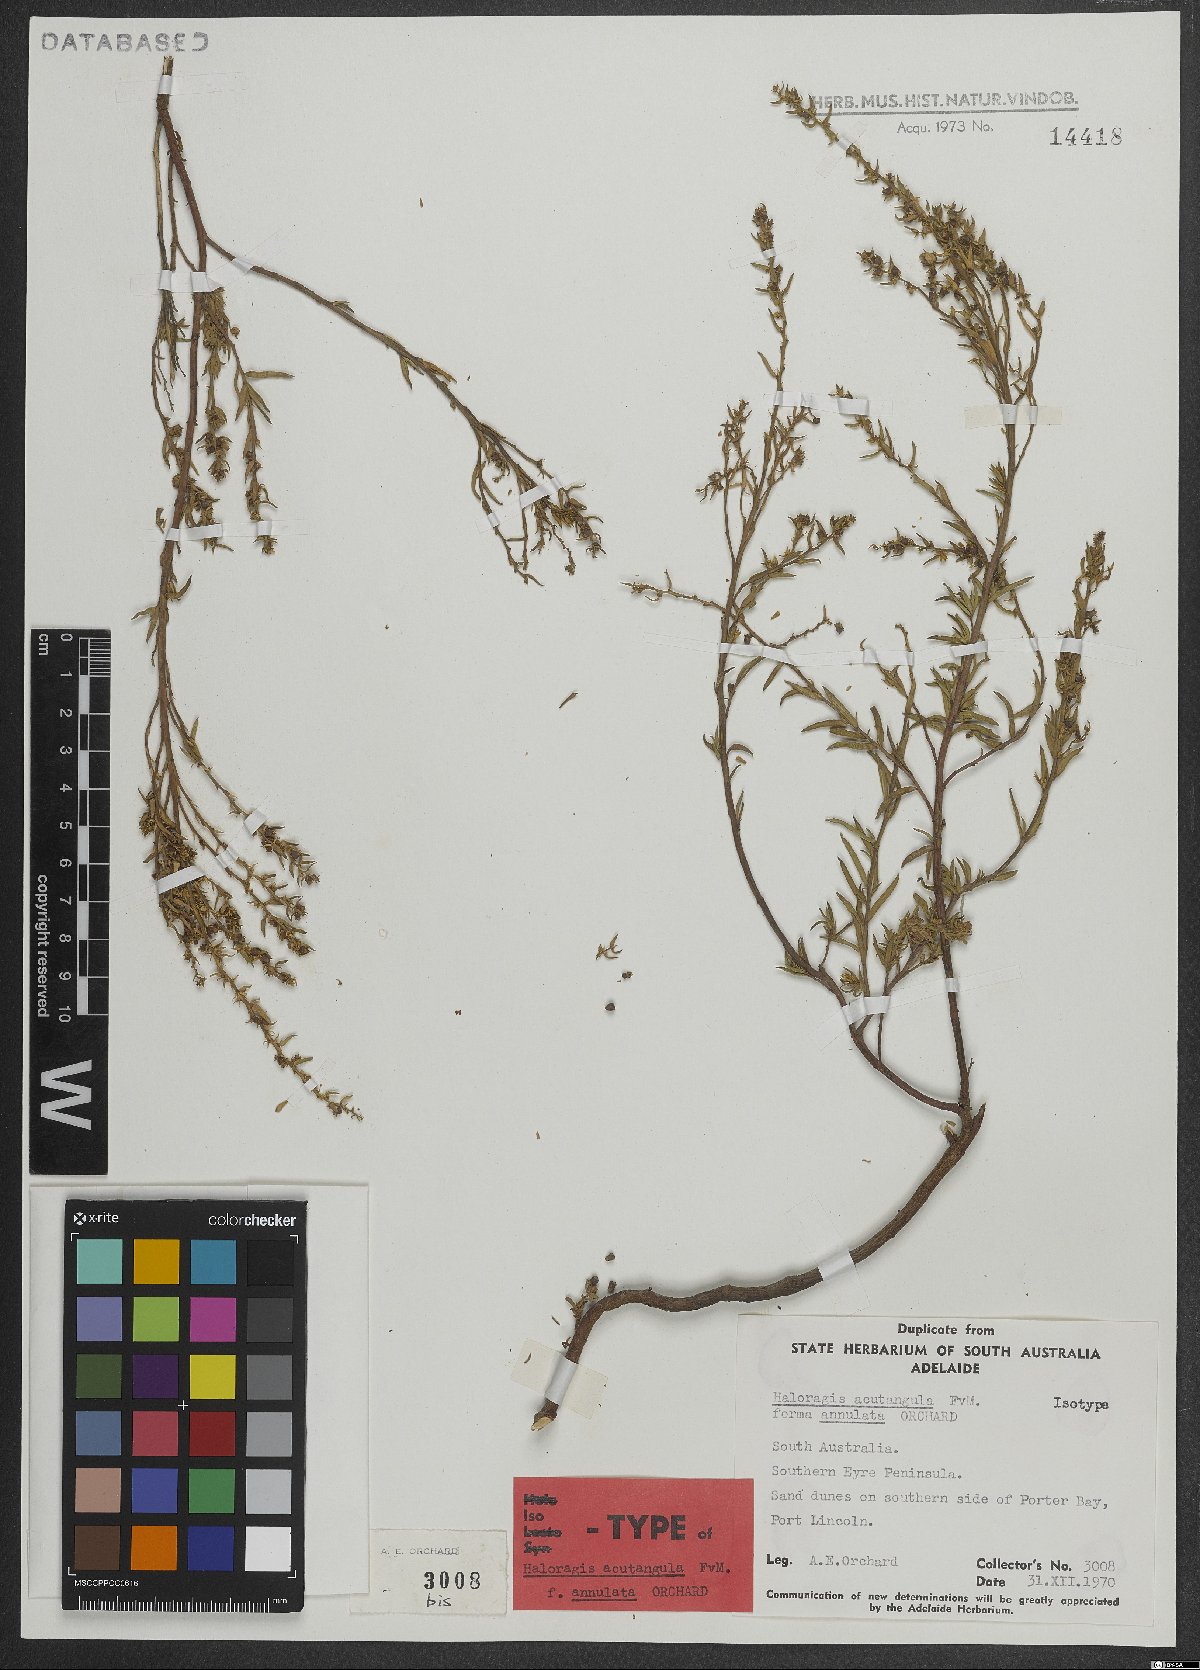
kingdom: Plantae
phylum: Tracheophyta
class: Magnoliopsida
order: Saxifragales
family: Haloragaceae
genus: Haloragis
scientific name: Haloragis acutangula
